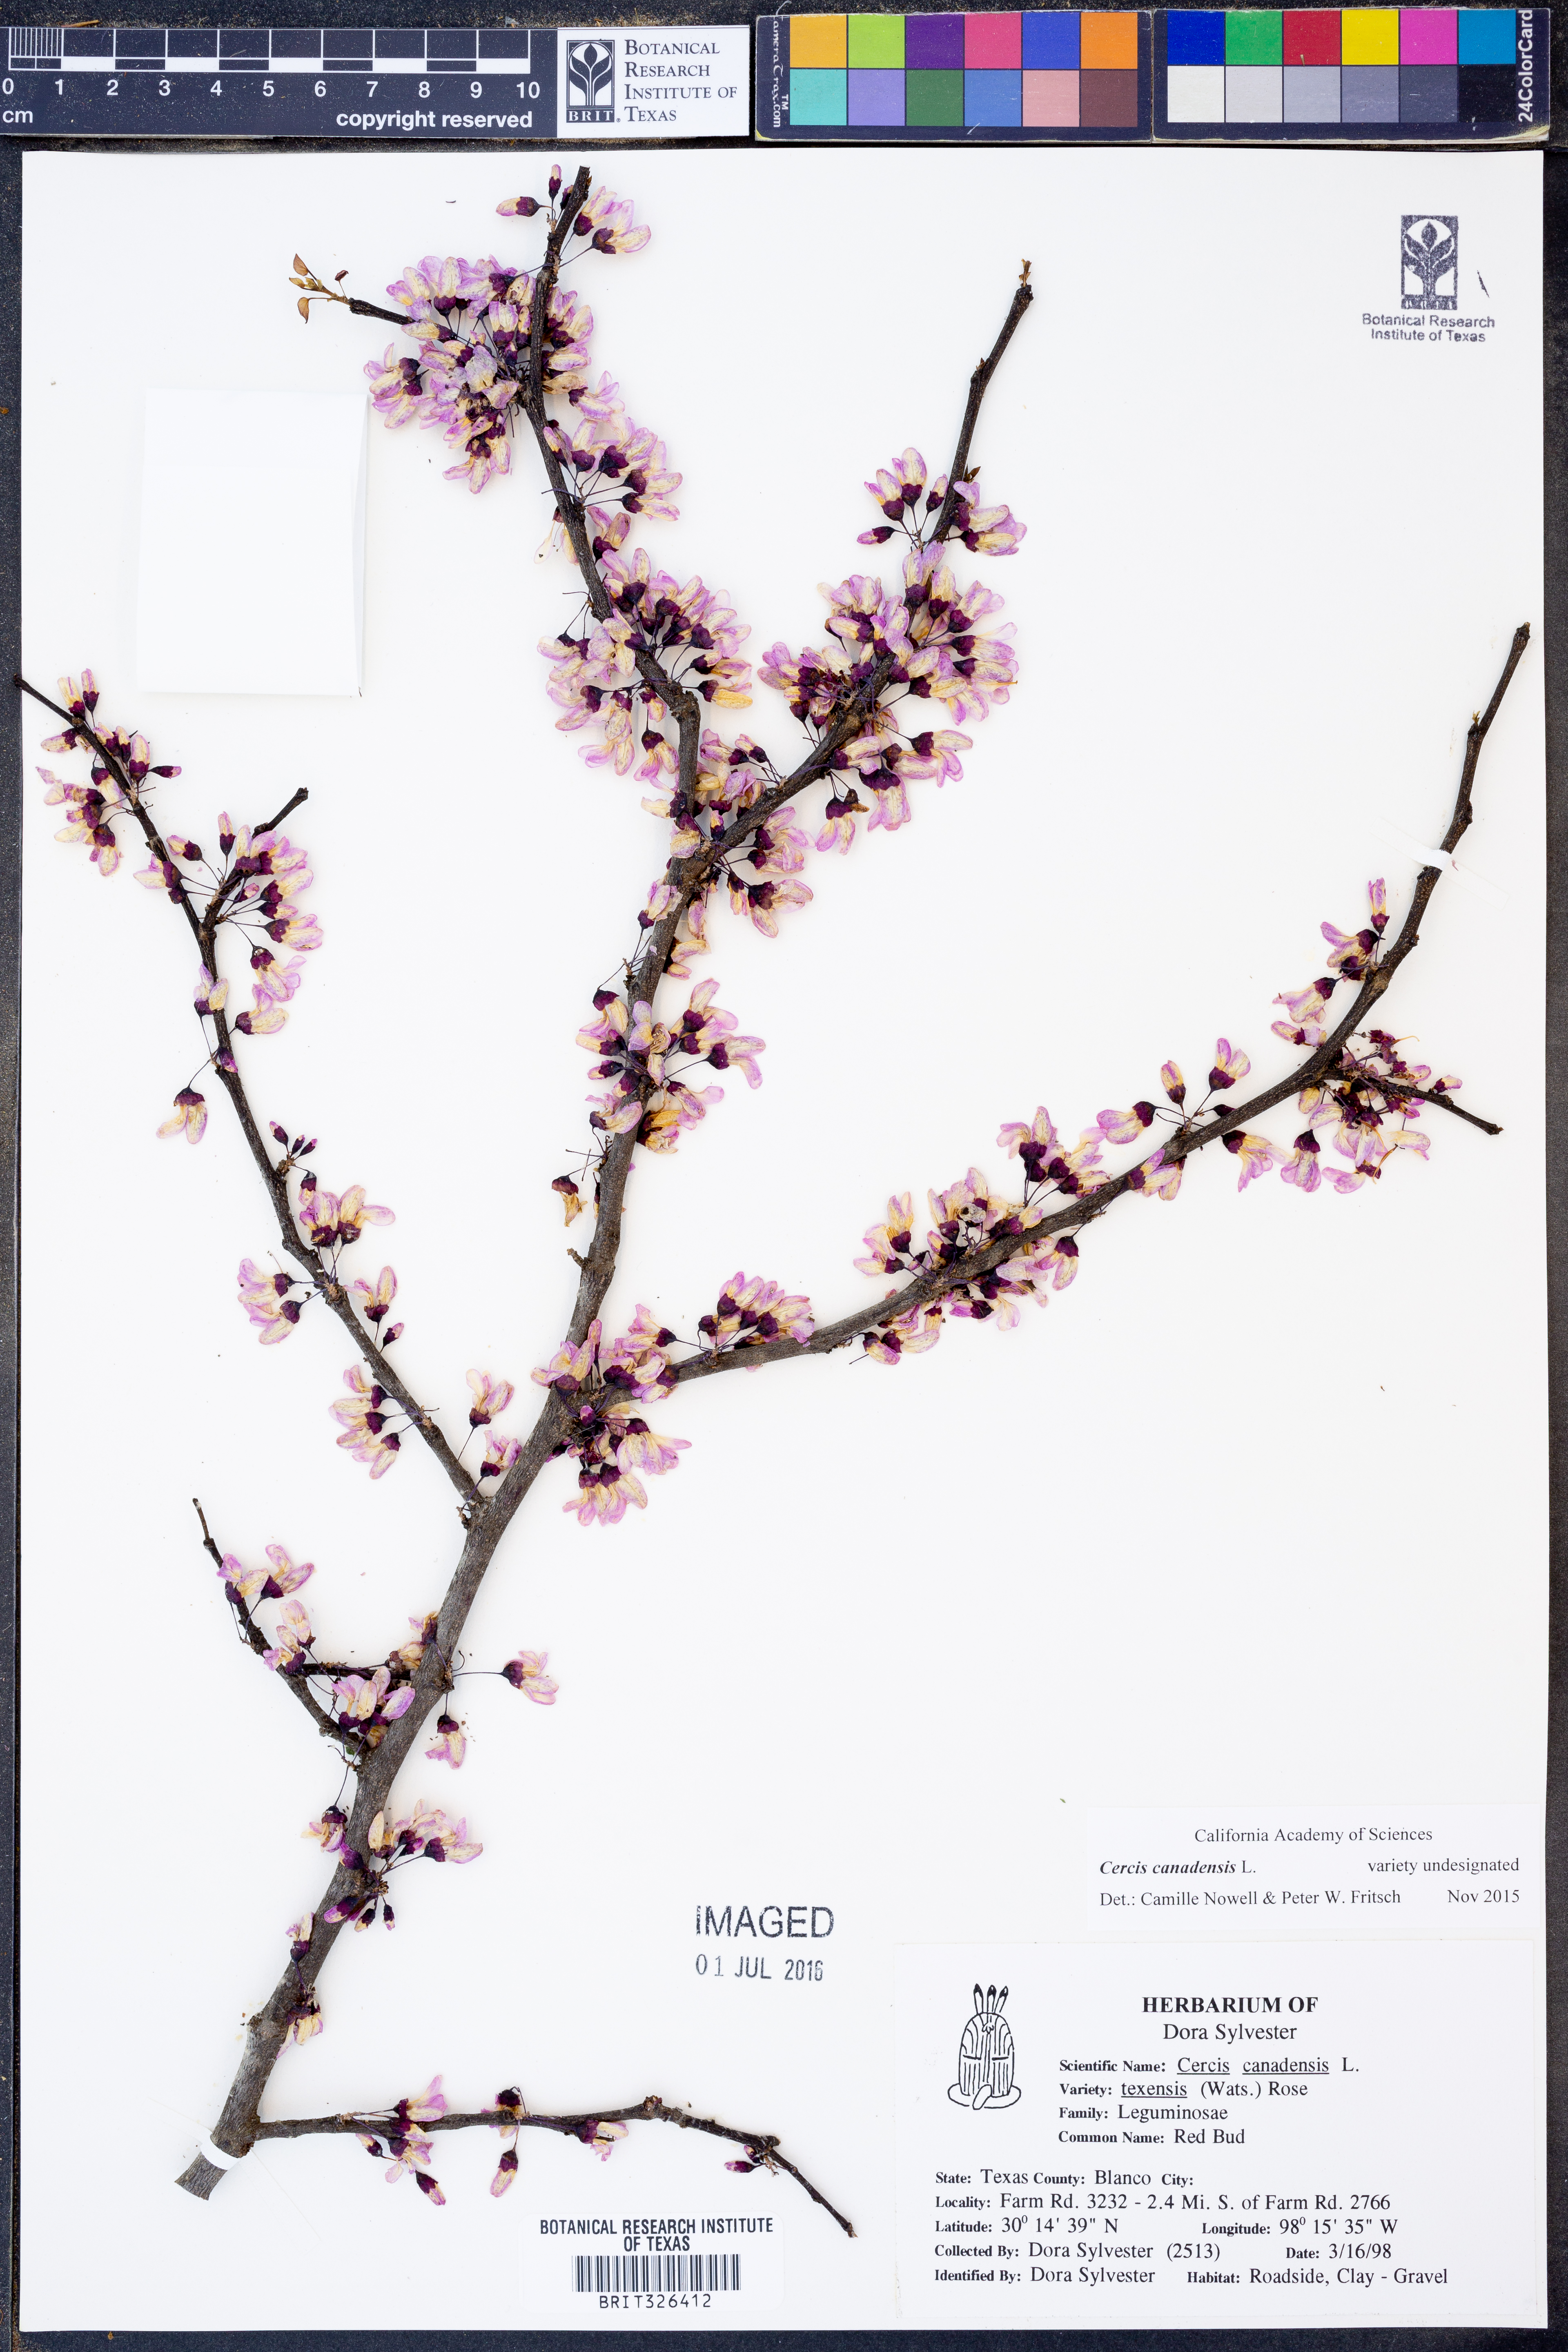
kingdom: Plantae
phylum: Tracheophyta
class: Magnoliopsida
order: Fabales
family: Fabaceae
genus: Cercis
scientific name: Cercis canadensis
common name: Eastern redbud
